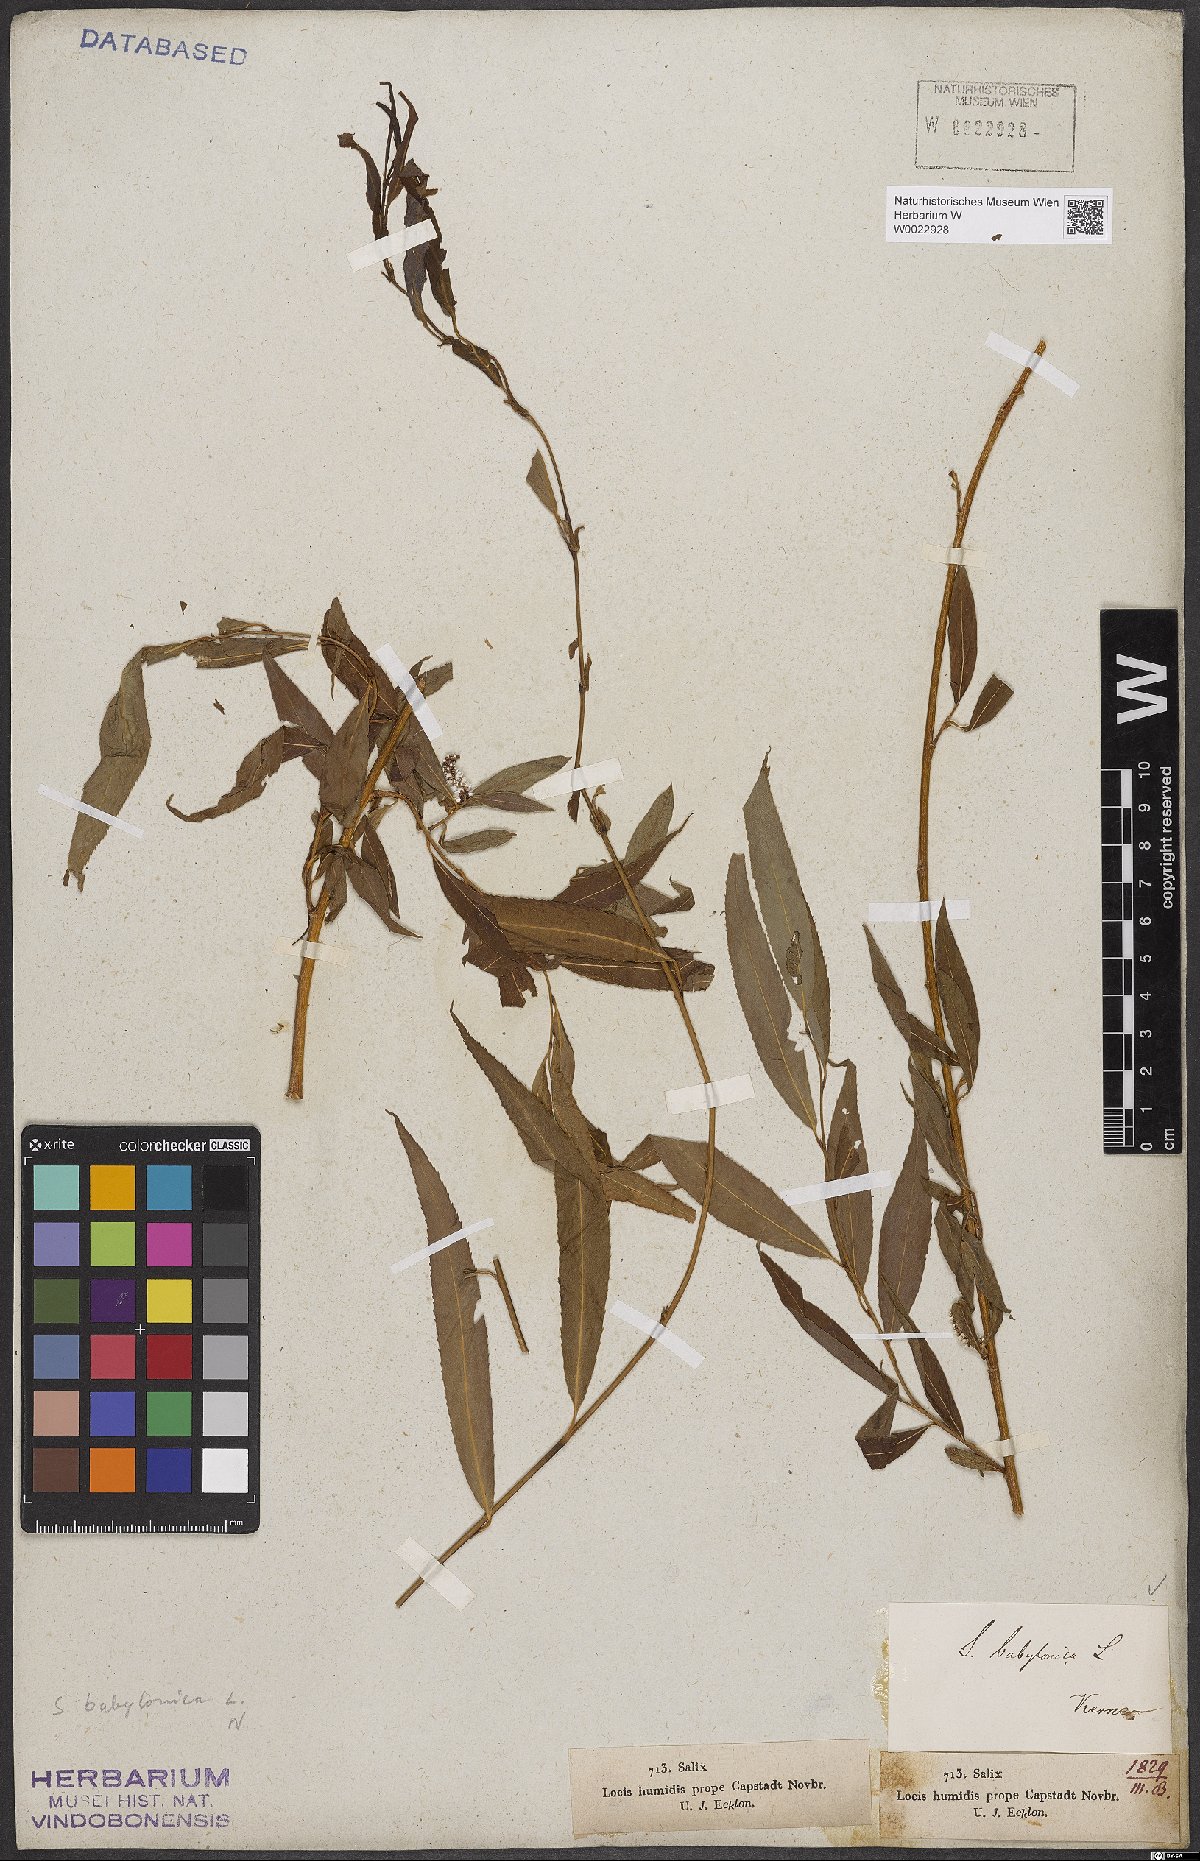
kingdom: Plantae
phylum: Tracheophyta
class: Magnoliopsida
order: Malpighiales
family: Salicaceae
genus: Salix
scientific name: Salix babylonica
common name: Weeping willow
